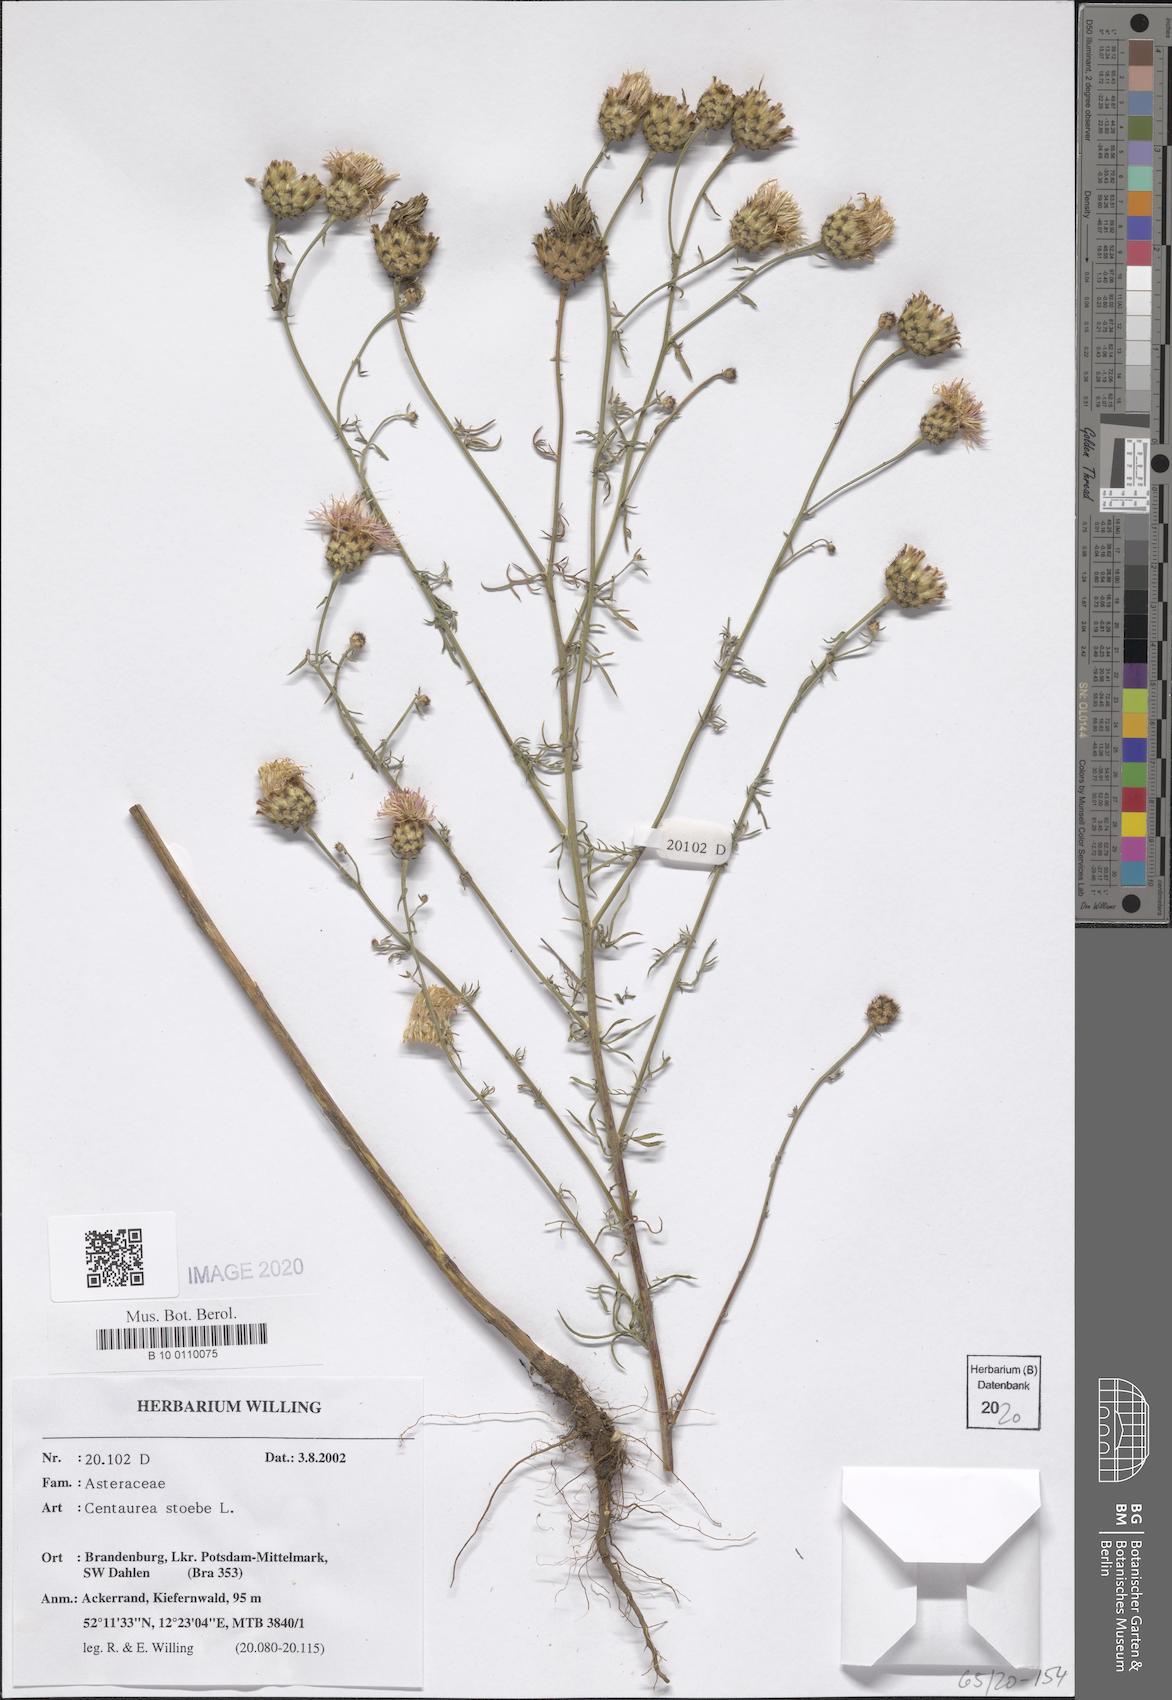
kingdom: Plantae
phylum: Tracheophyta
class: Magnoliopsida
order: Asterales
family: Asteraceae
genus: Centaurea
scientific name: Centaurea stoebe
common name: Spotted knapweed
